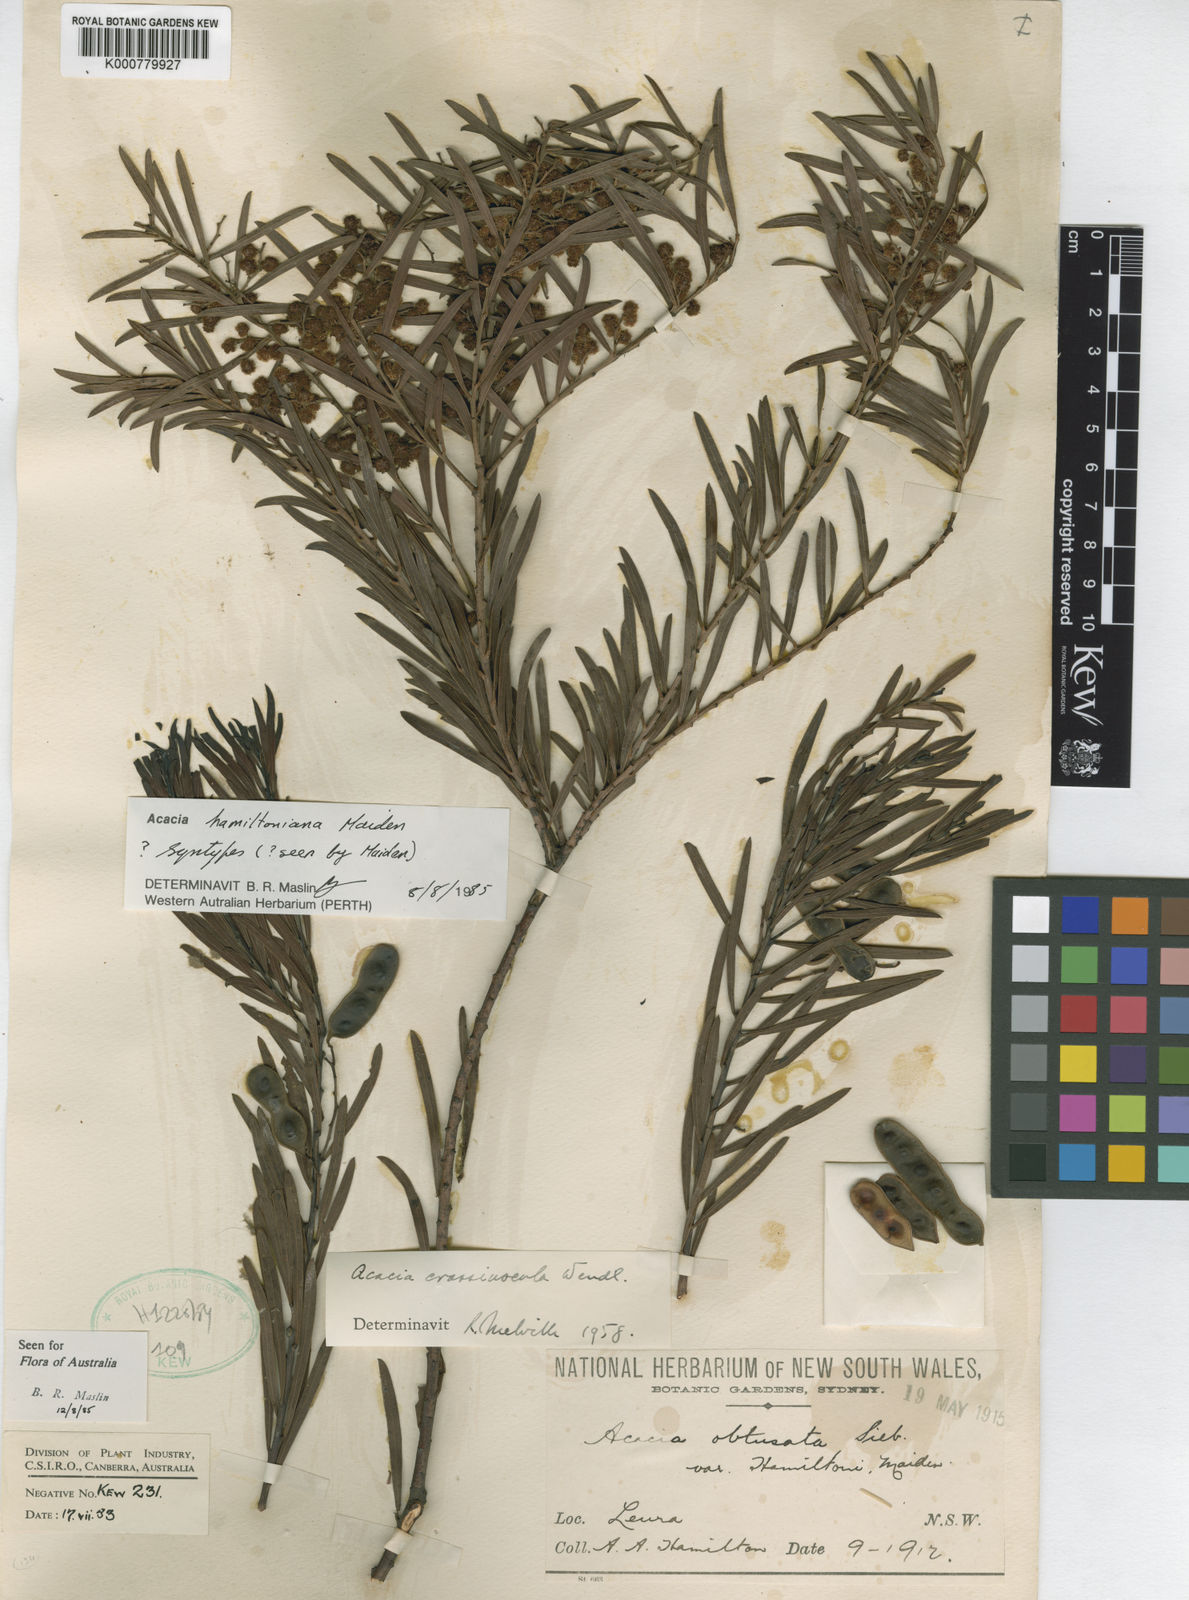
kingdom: Plantae
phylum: Tracheophyta
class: Magnoliopsida
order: Fabales
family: Fabaceae
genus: Acacia
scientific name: Acacia hamiltoniana
